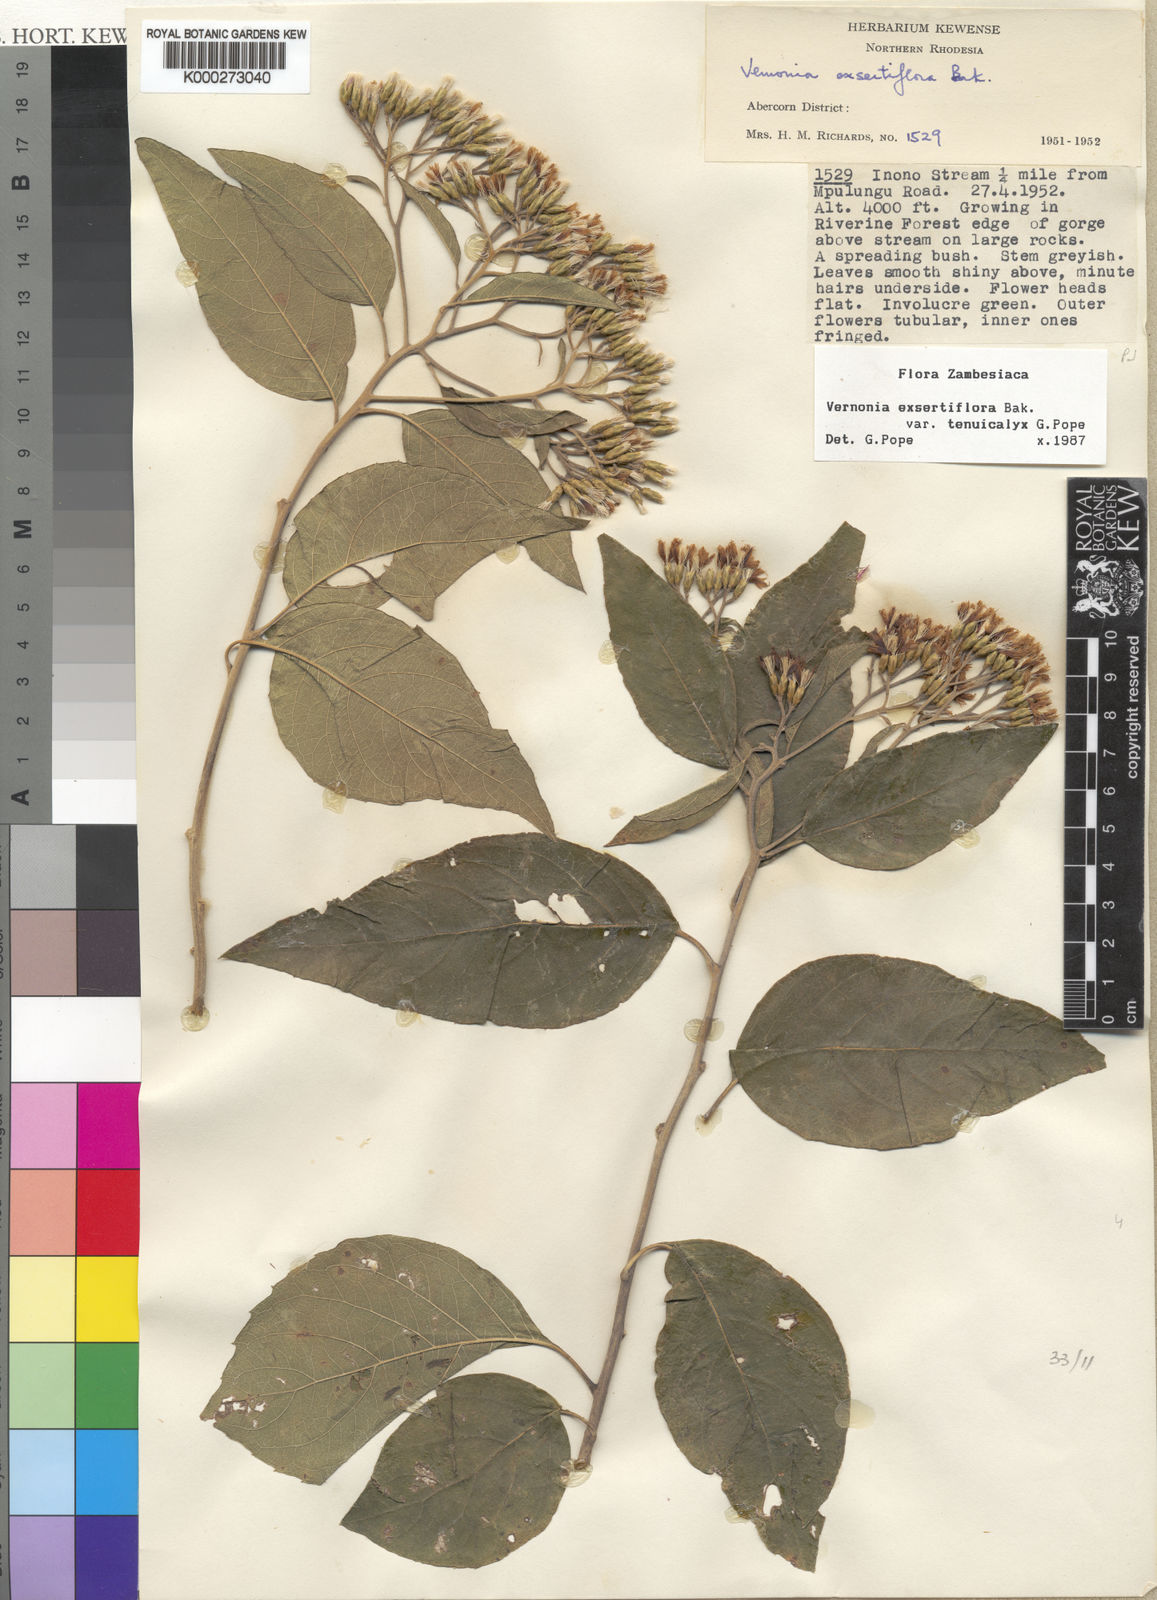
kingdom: Plantae
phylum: Tracheophyta
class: Magnoliopsida
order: Asterales
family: Asteraceae
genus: Gymnanthemum
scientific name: Gymnanthemum exsertiflorum
